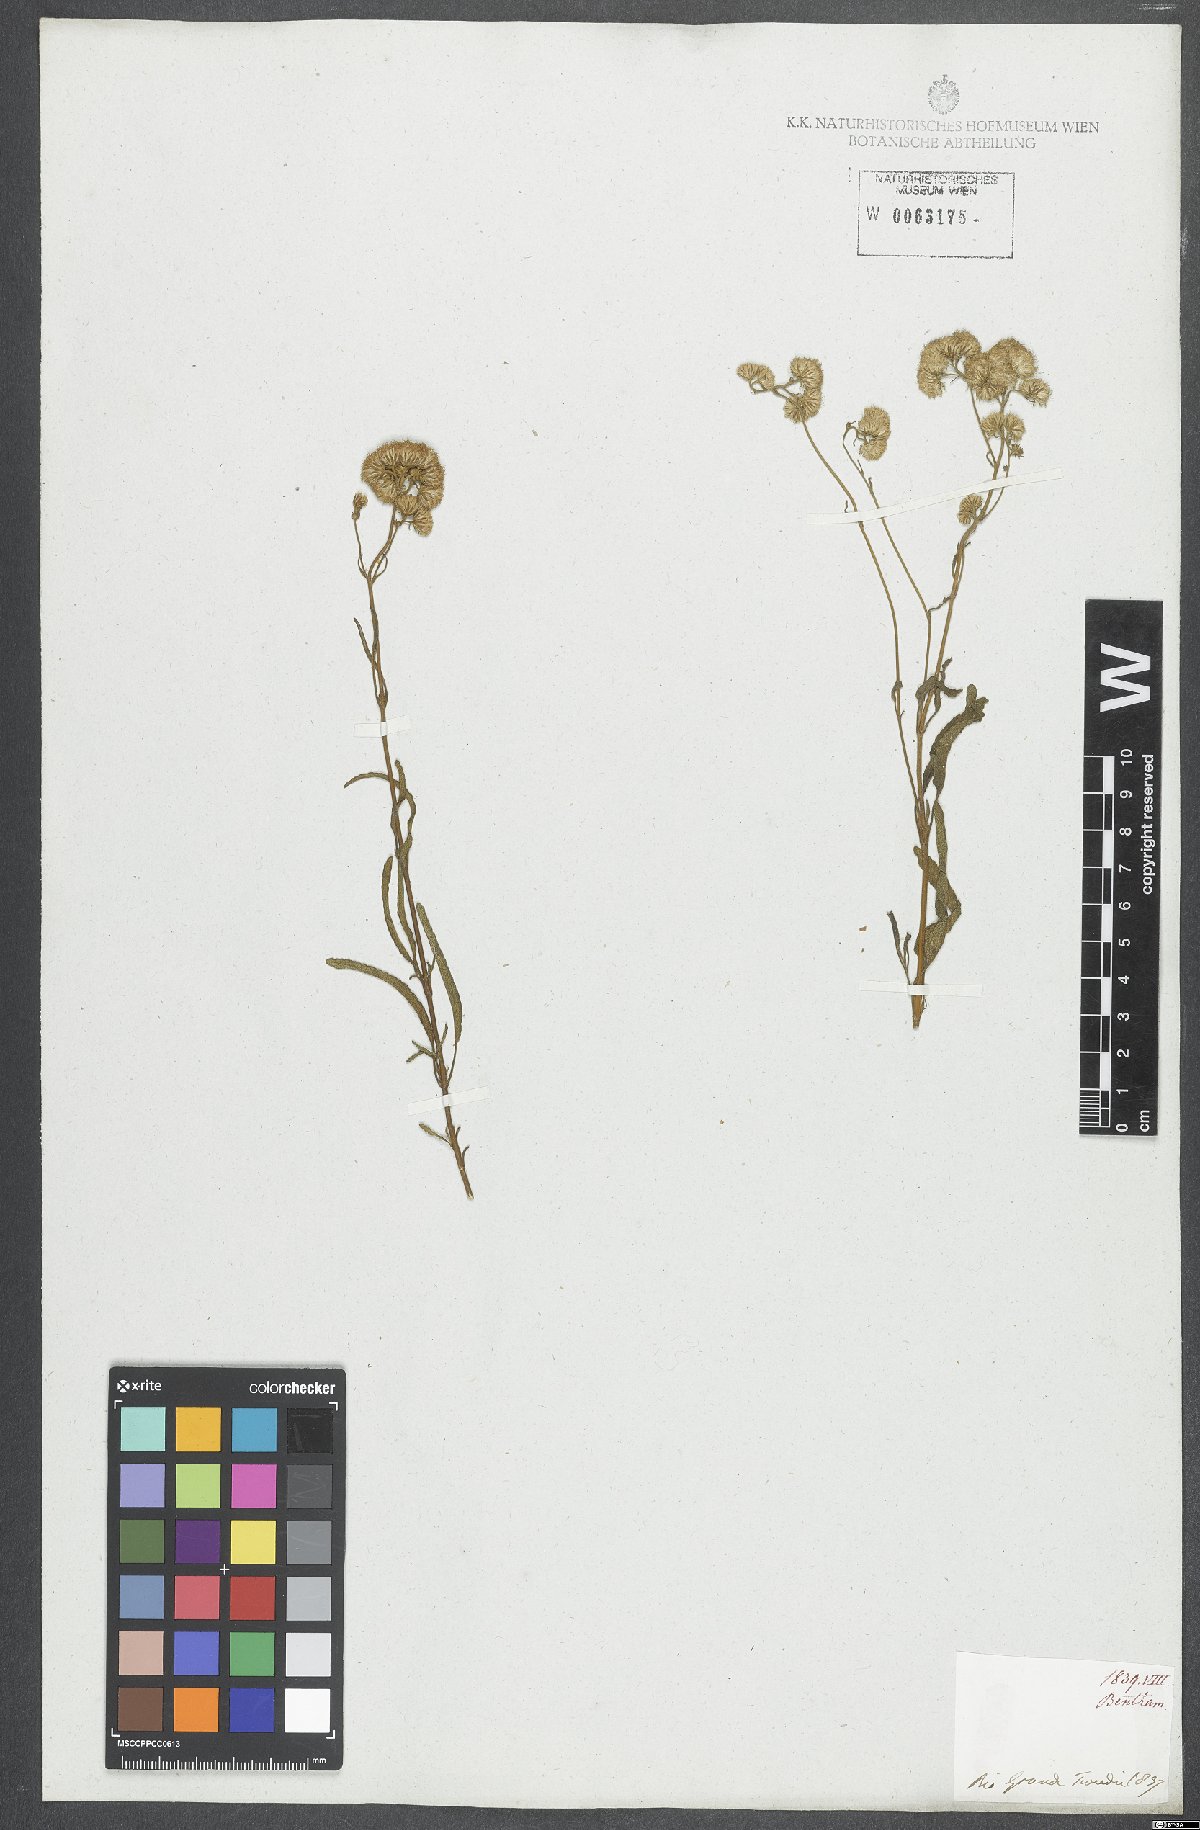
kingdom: Plantae
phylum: Tracheophyta
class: Magnoliopsida
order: Asterales
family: Asteraceae
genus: Eupatorium
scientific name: Eupatorium
